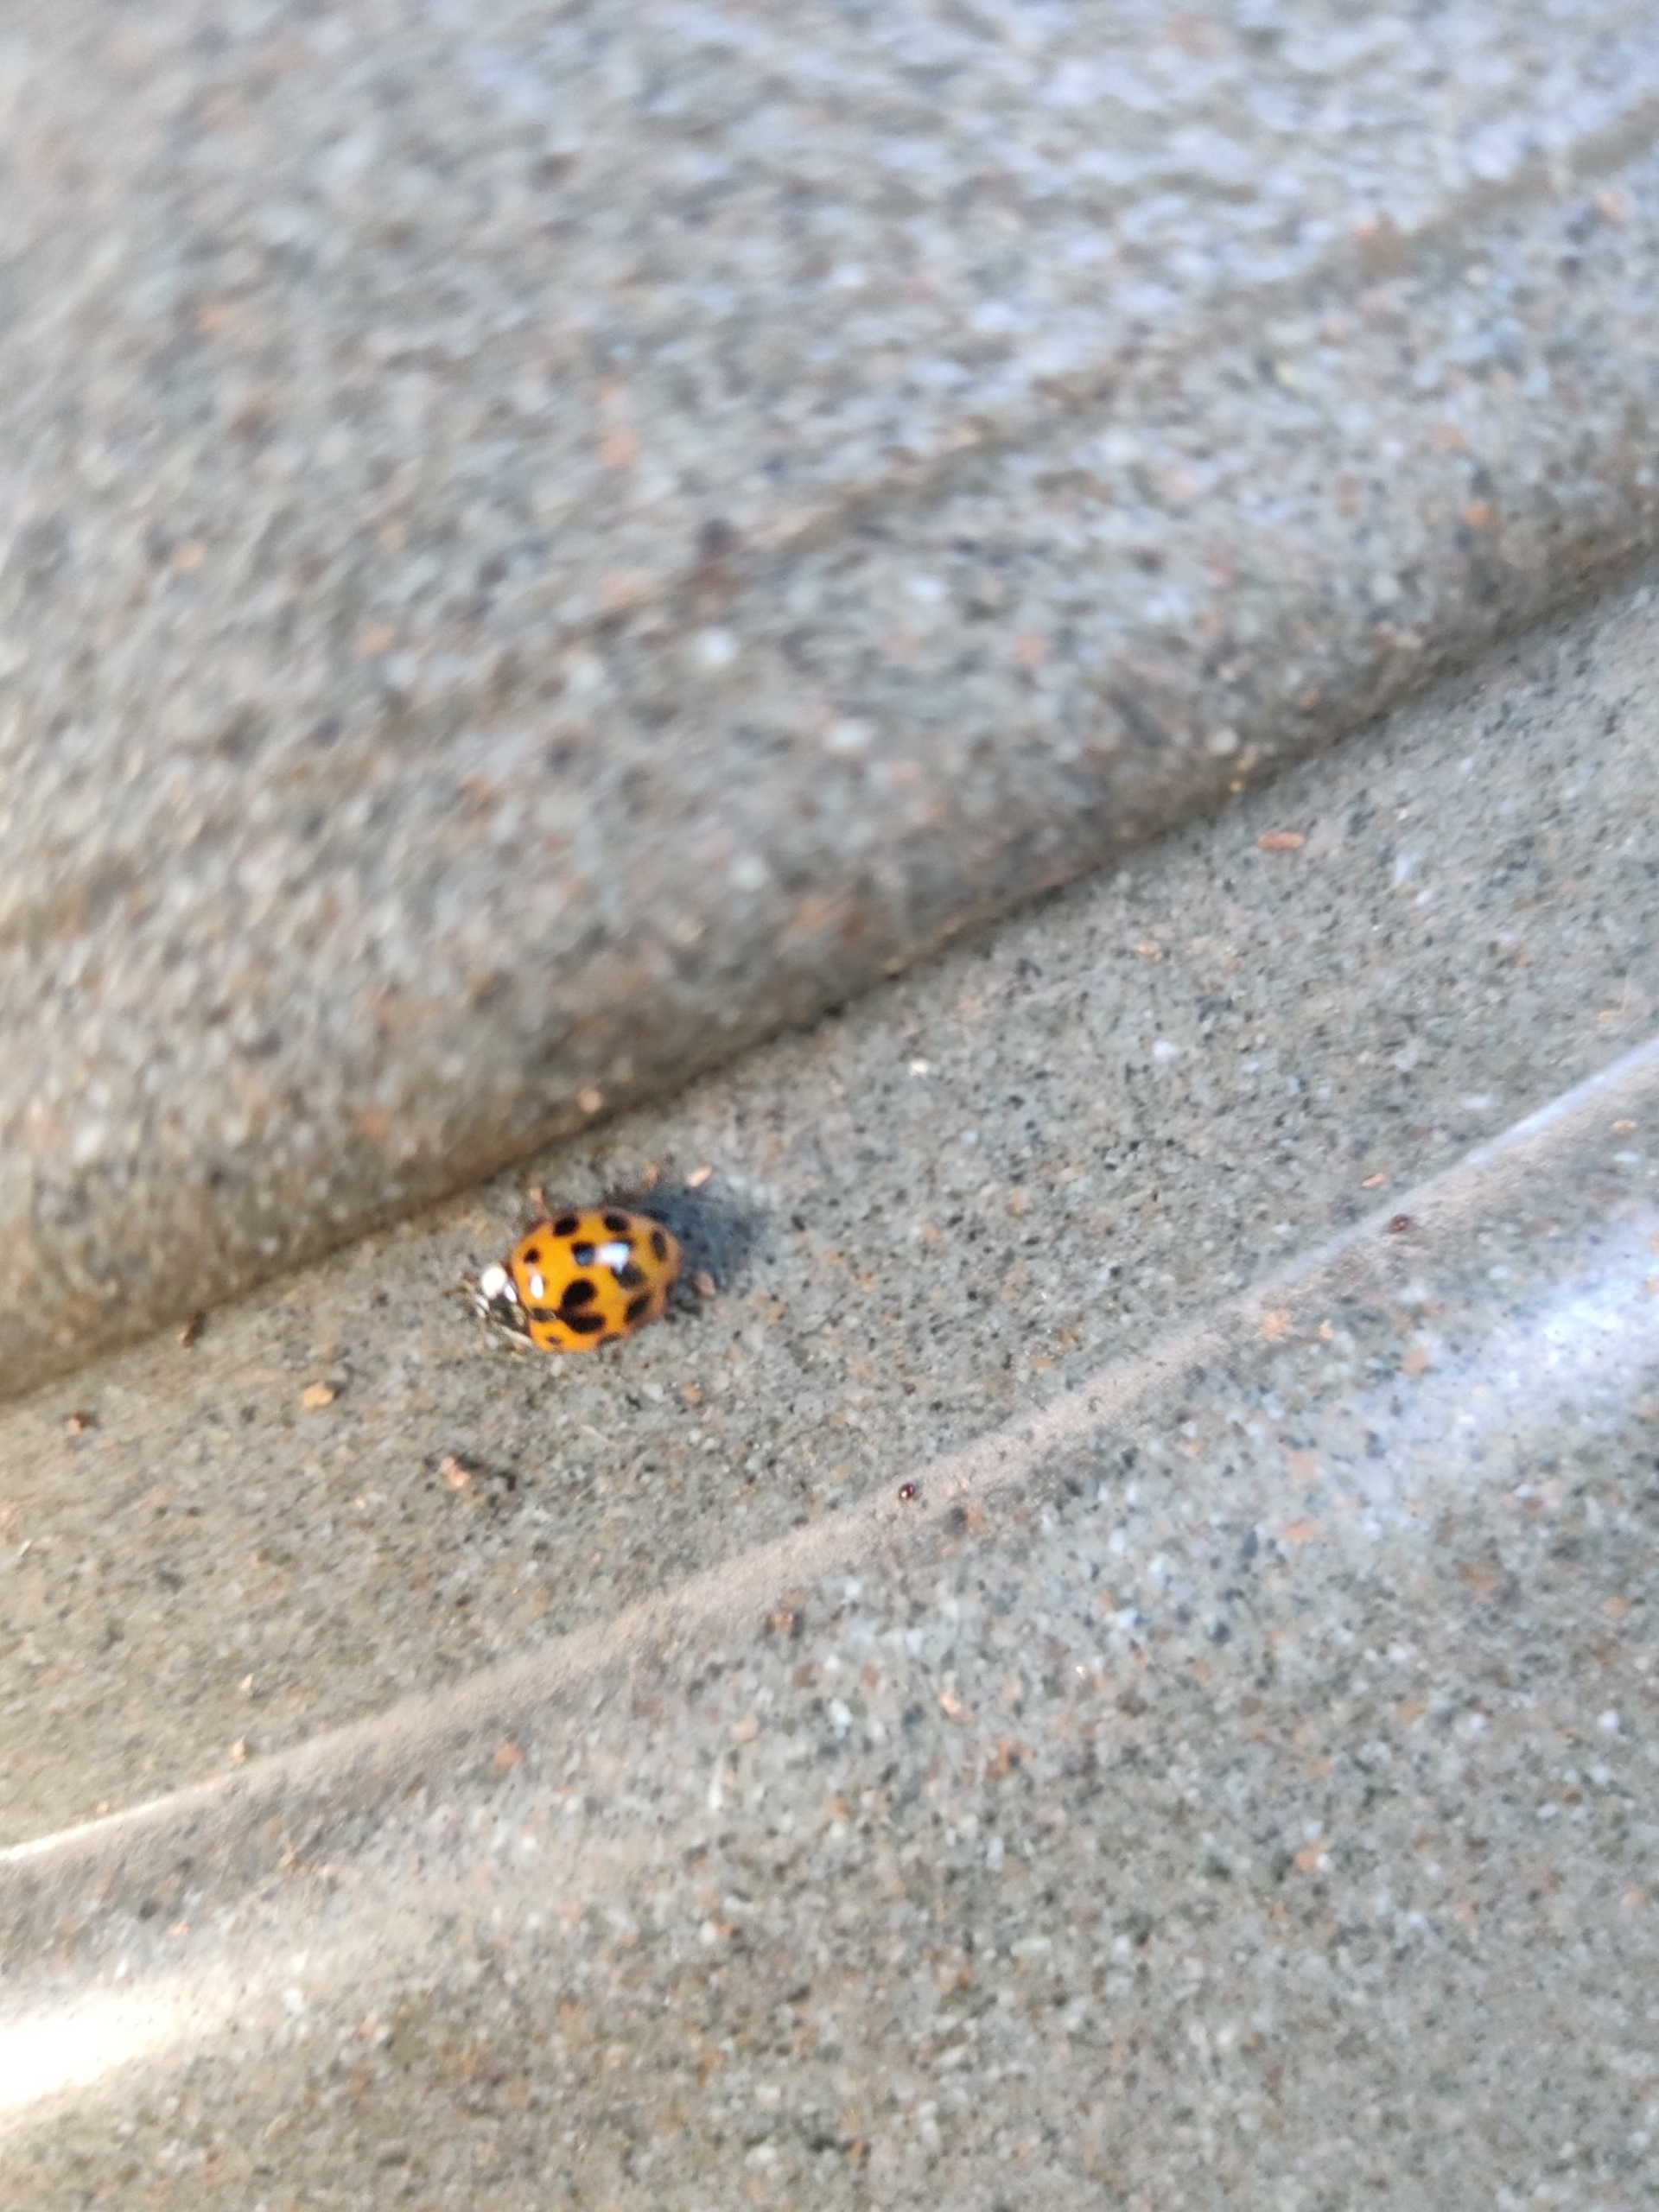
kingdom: Animalia
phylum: Arthropoda
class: Insecta
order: Coleoptera
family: Coccinellidae
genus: Harmonia
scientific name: Harmonia axyridis
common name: Harlekinmariehøne
